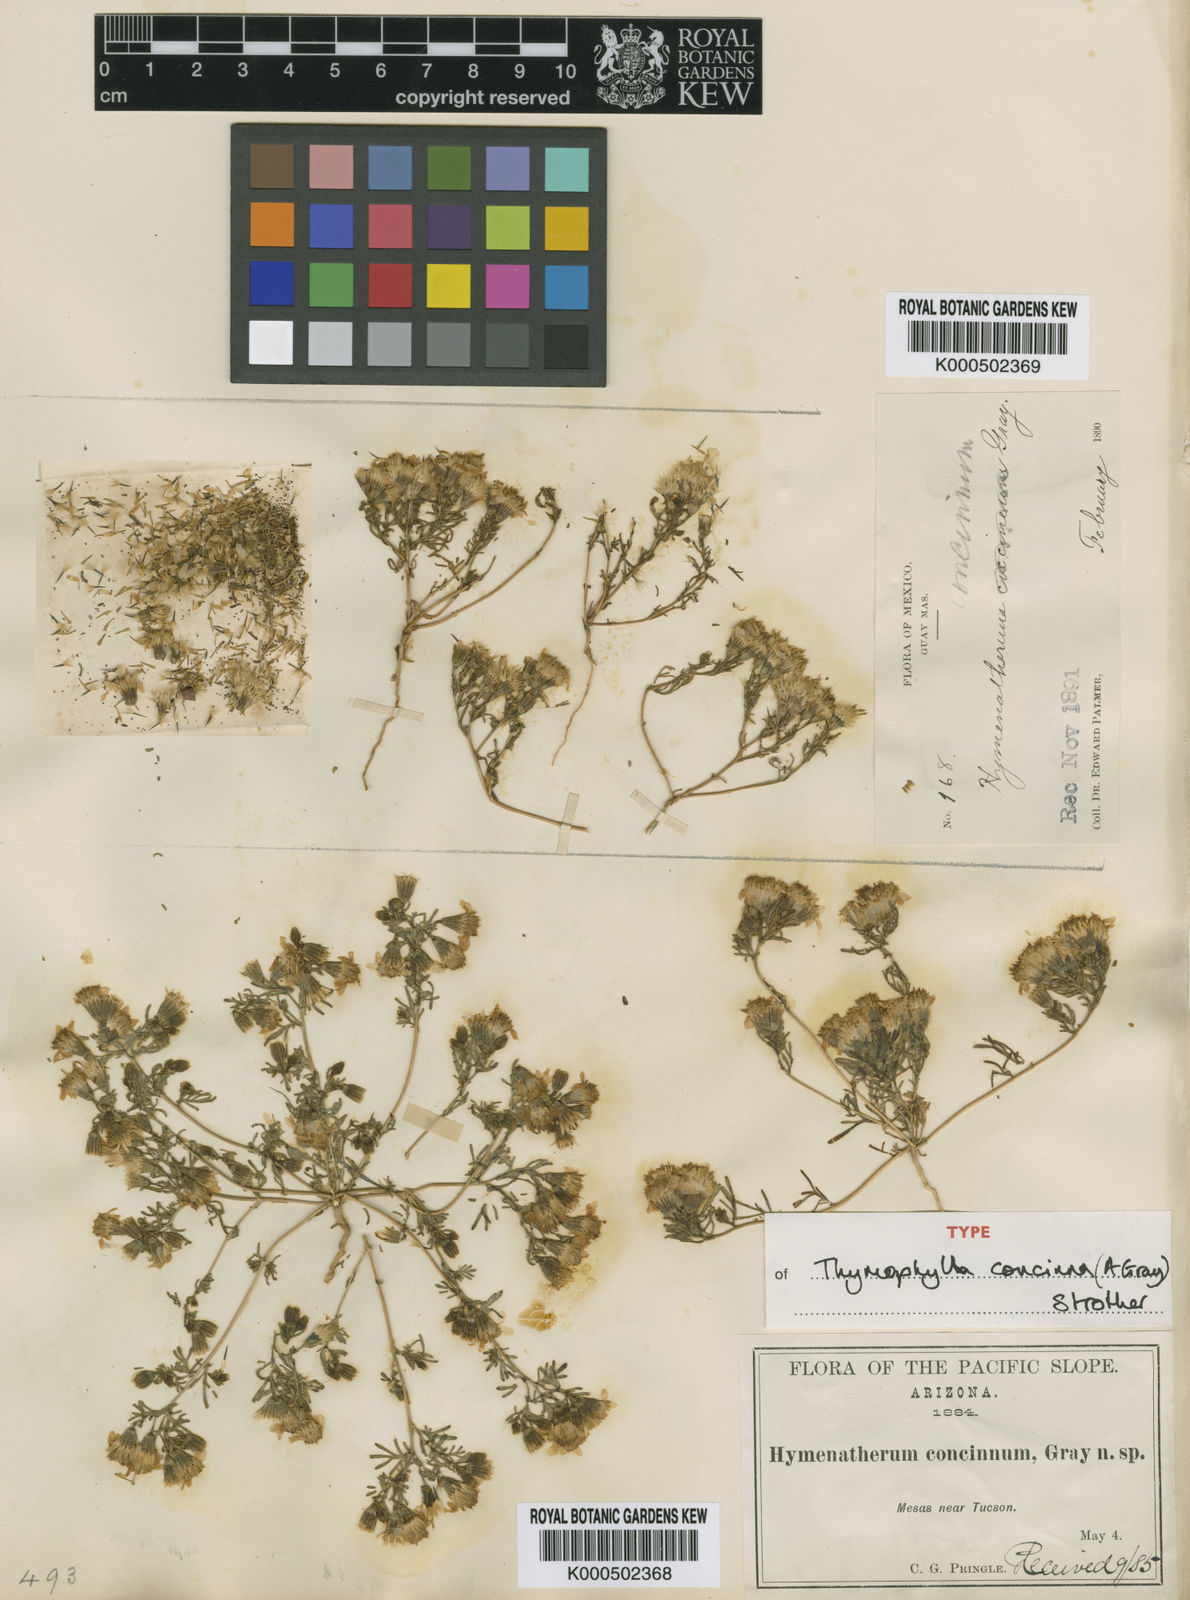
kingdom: Plantae
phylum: Tracheophyta
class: Magnoliopsida
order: Asterales
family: Asteraceae
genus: Thymophylla
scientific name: Thymophylla concinna
